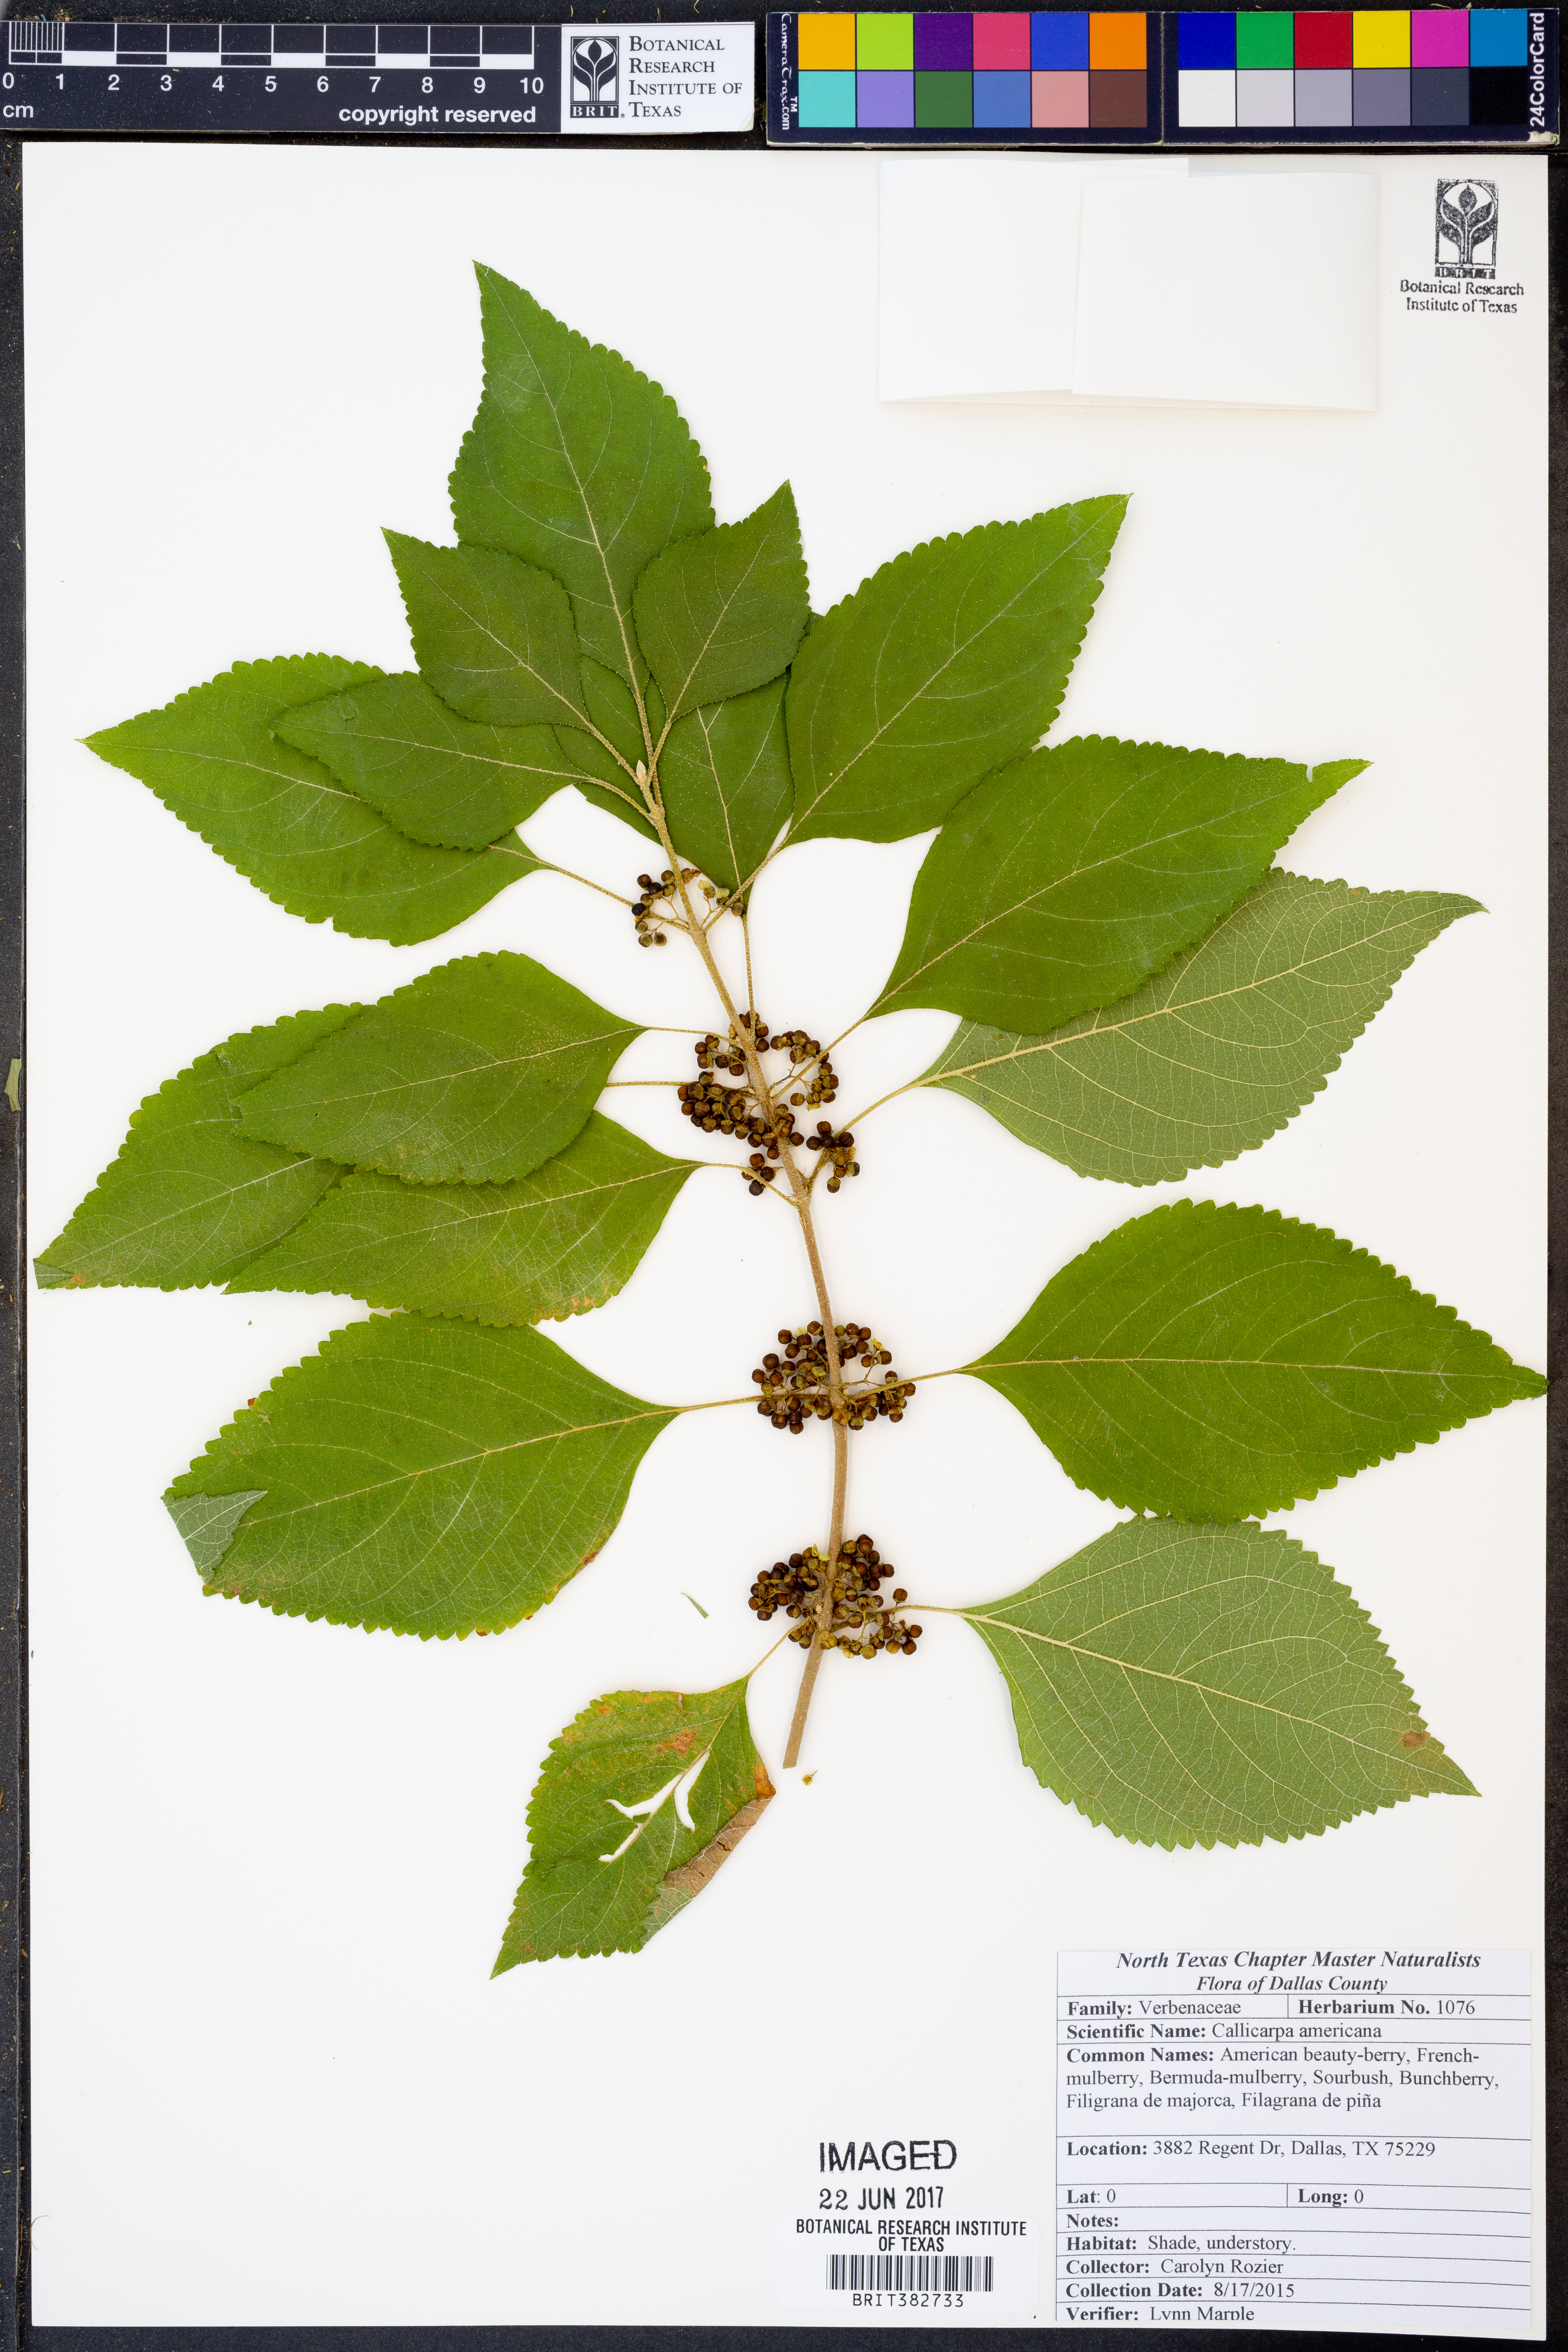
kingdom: Plantae
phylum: Tracheophyta
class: Magnoliopsida
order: Lamiales
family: Lamiaceae
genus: Callicarpa
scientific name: Callicarpa americana
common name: American beautyberry
